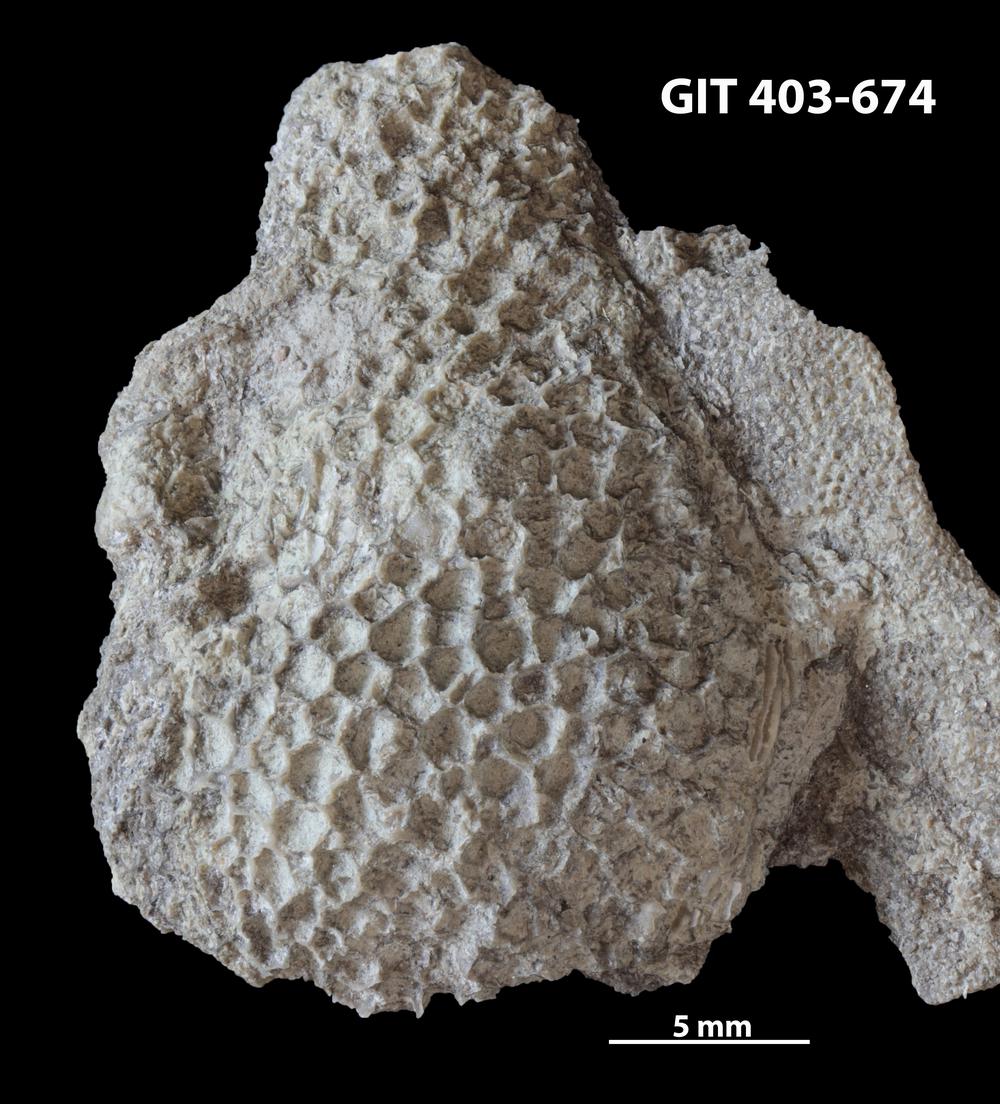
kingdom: Animalia
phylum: Cnidaria
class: Anthozoa
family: Favositidae
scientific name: Favositidae
